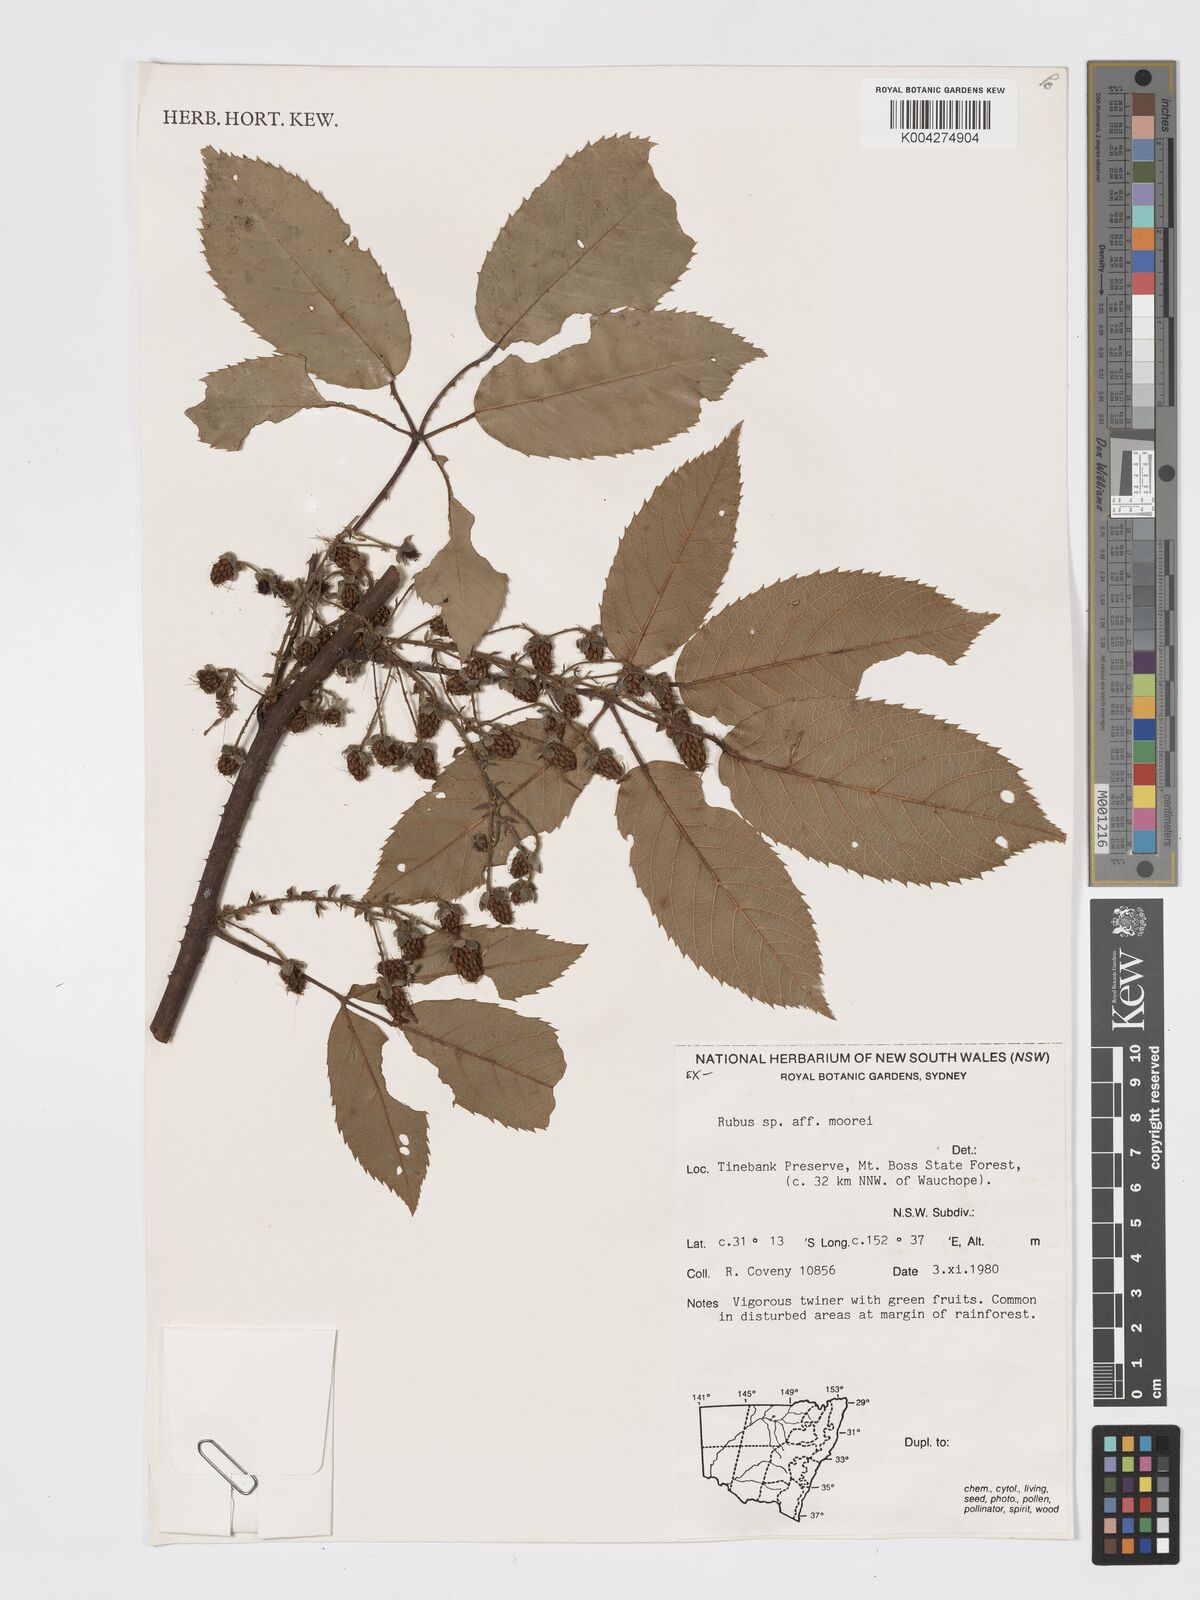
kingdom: Plantae
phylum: Tracheophyta
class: Magnoliopsida
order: Rosales
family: Rosaceae
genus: Rubus
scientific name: Rubus moorei
